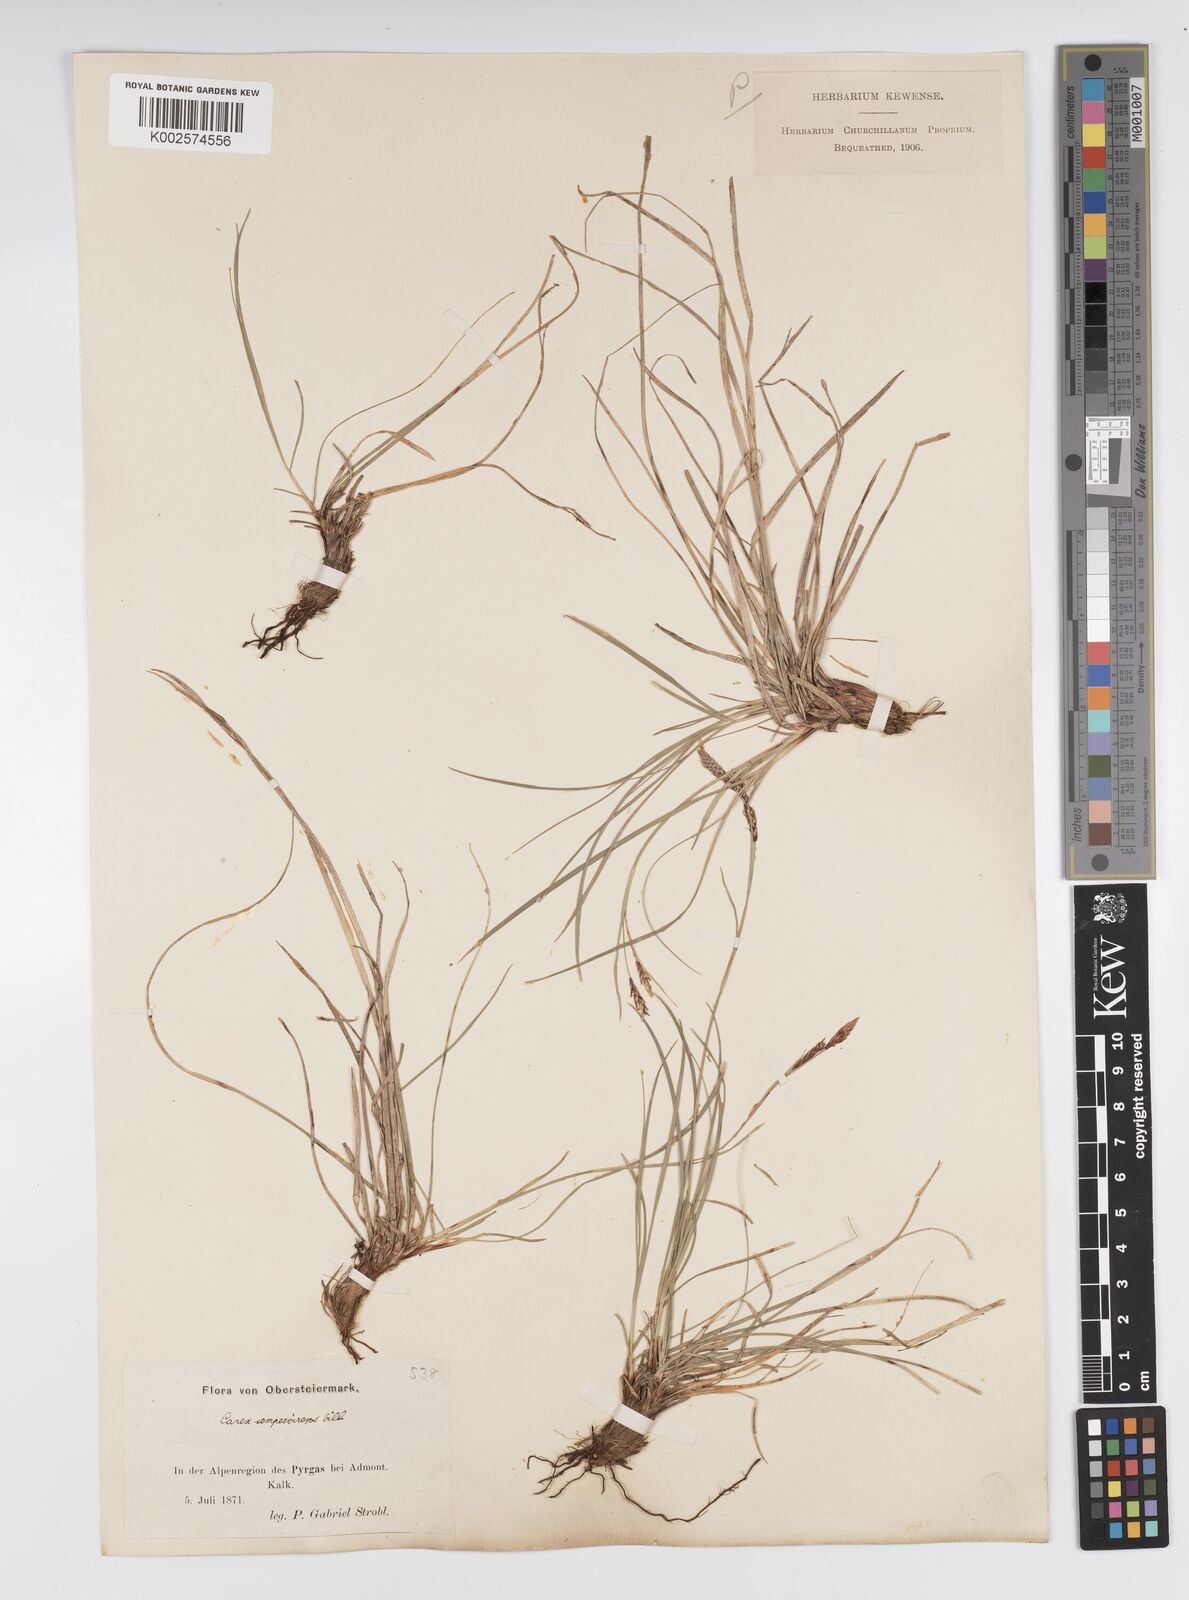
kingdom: Plantae
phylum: Tracheophyta
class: Liliopsida
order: Poales
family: Cyperaceae
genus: Carex
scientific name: Carex sempervirens
